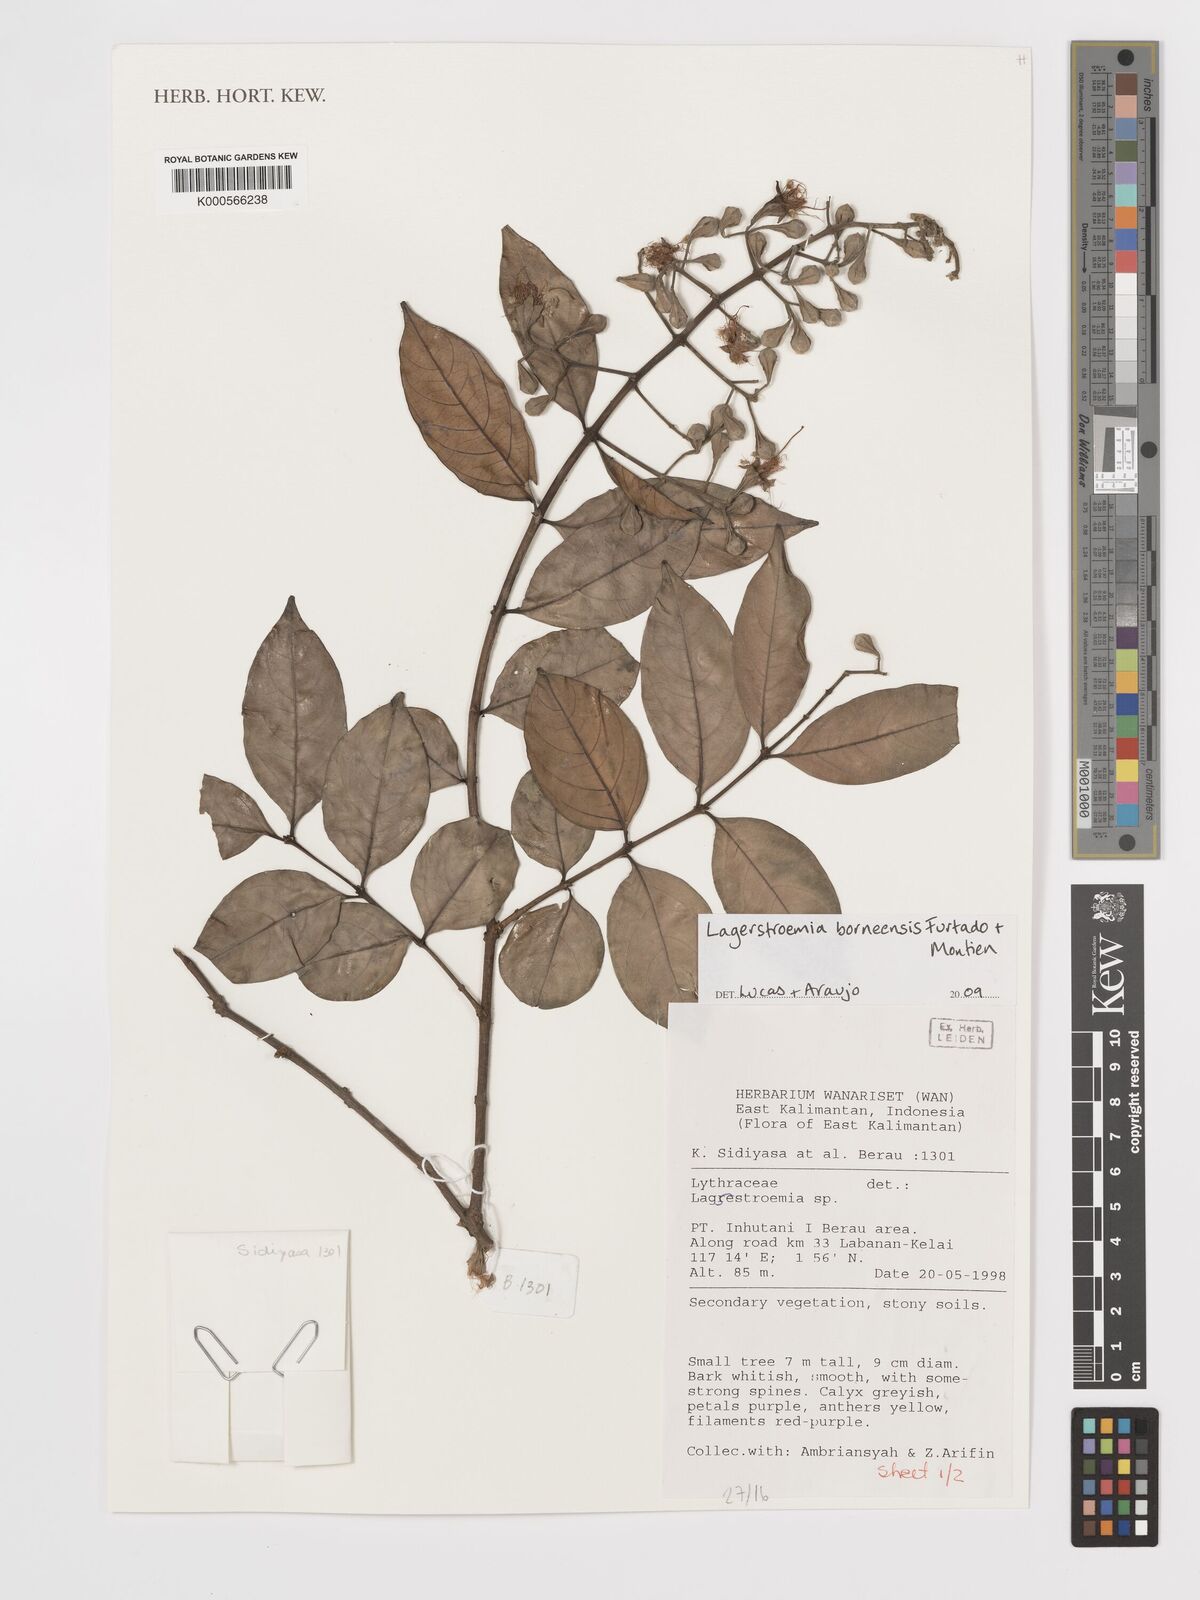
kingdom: Plantae
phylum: Tracheophyta
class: Magnoliopsida
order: Myrtales
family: Lythraceae
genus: Lagerstroemia
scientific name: Lagerstroemia
